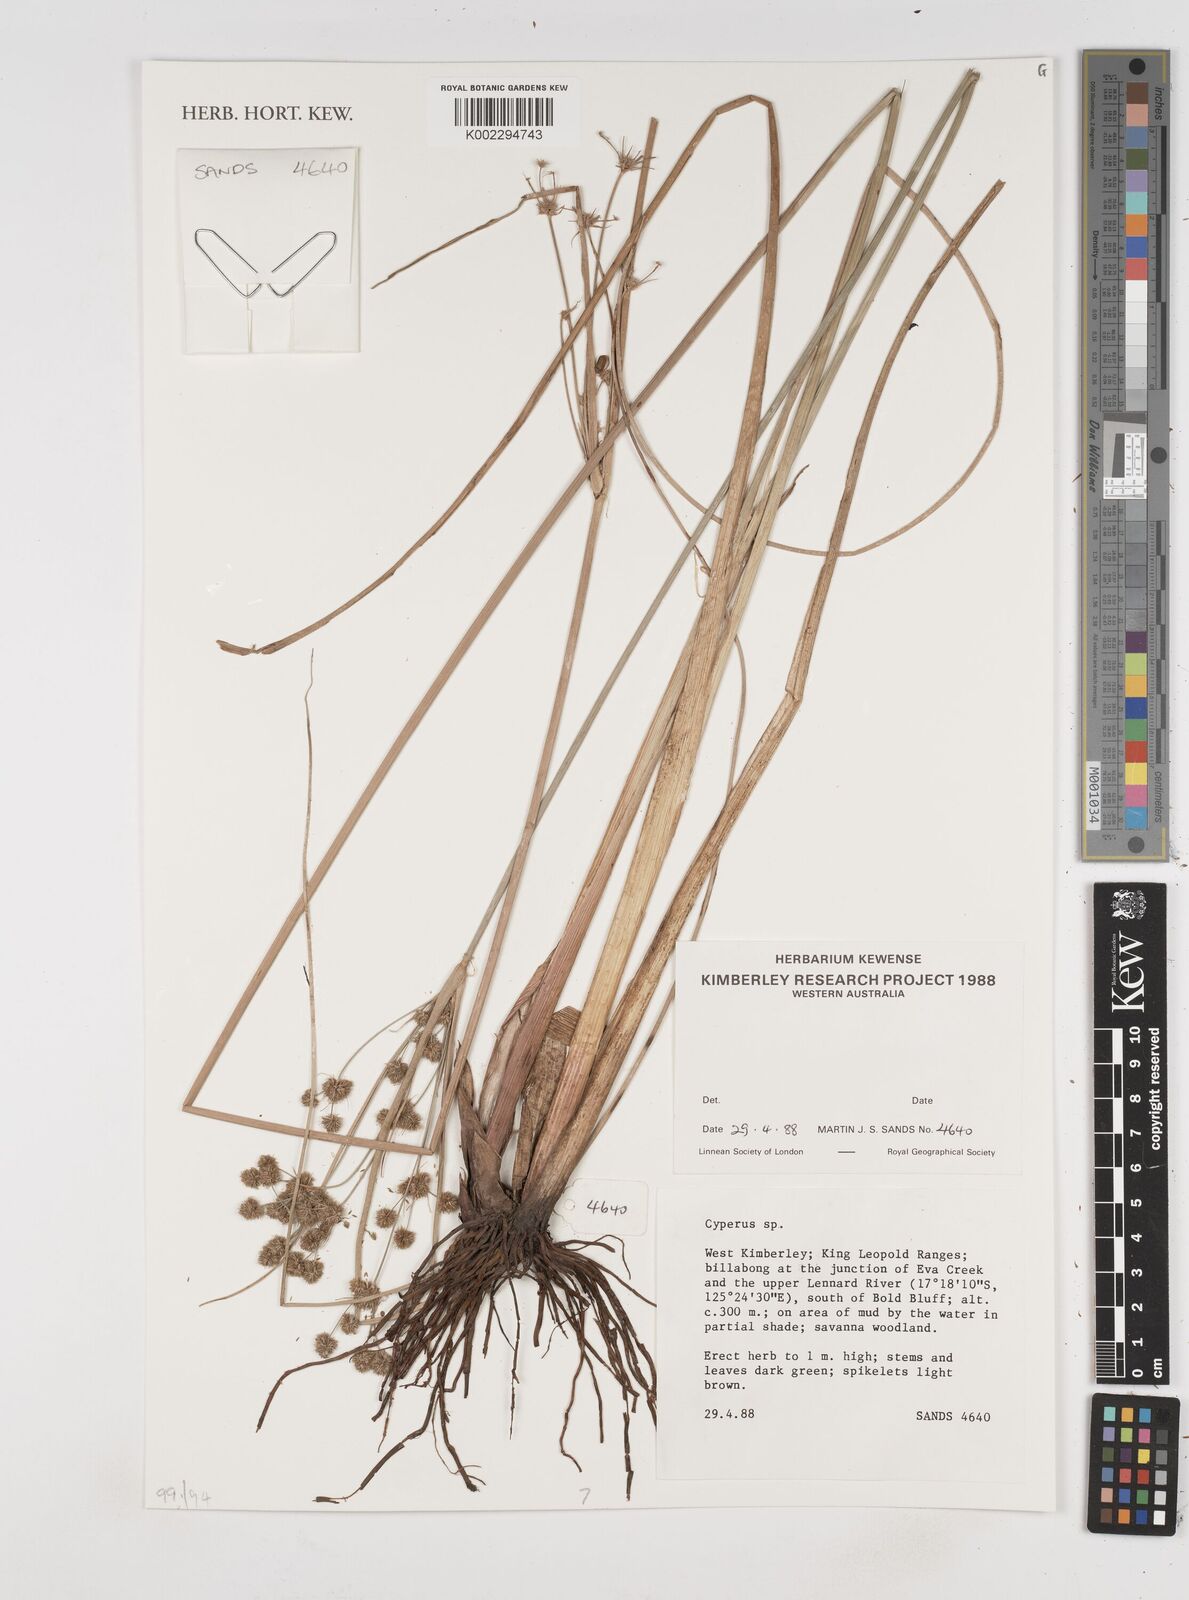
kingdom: Plantae
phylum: Tracheophyta
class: Liliopsida
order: Poales
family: Cyperaceae
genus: Cyperus
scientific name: Cyperus
